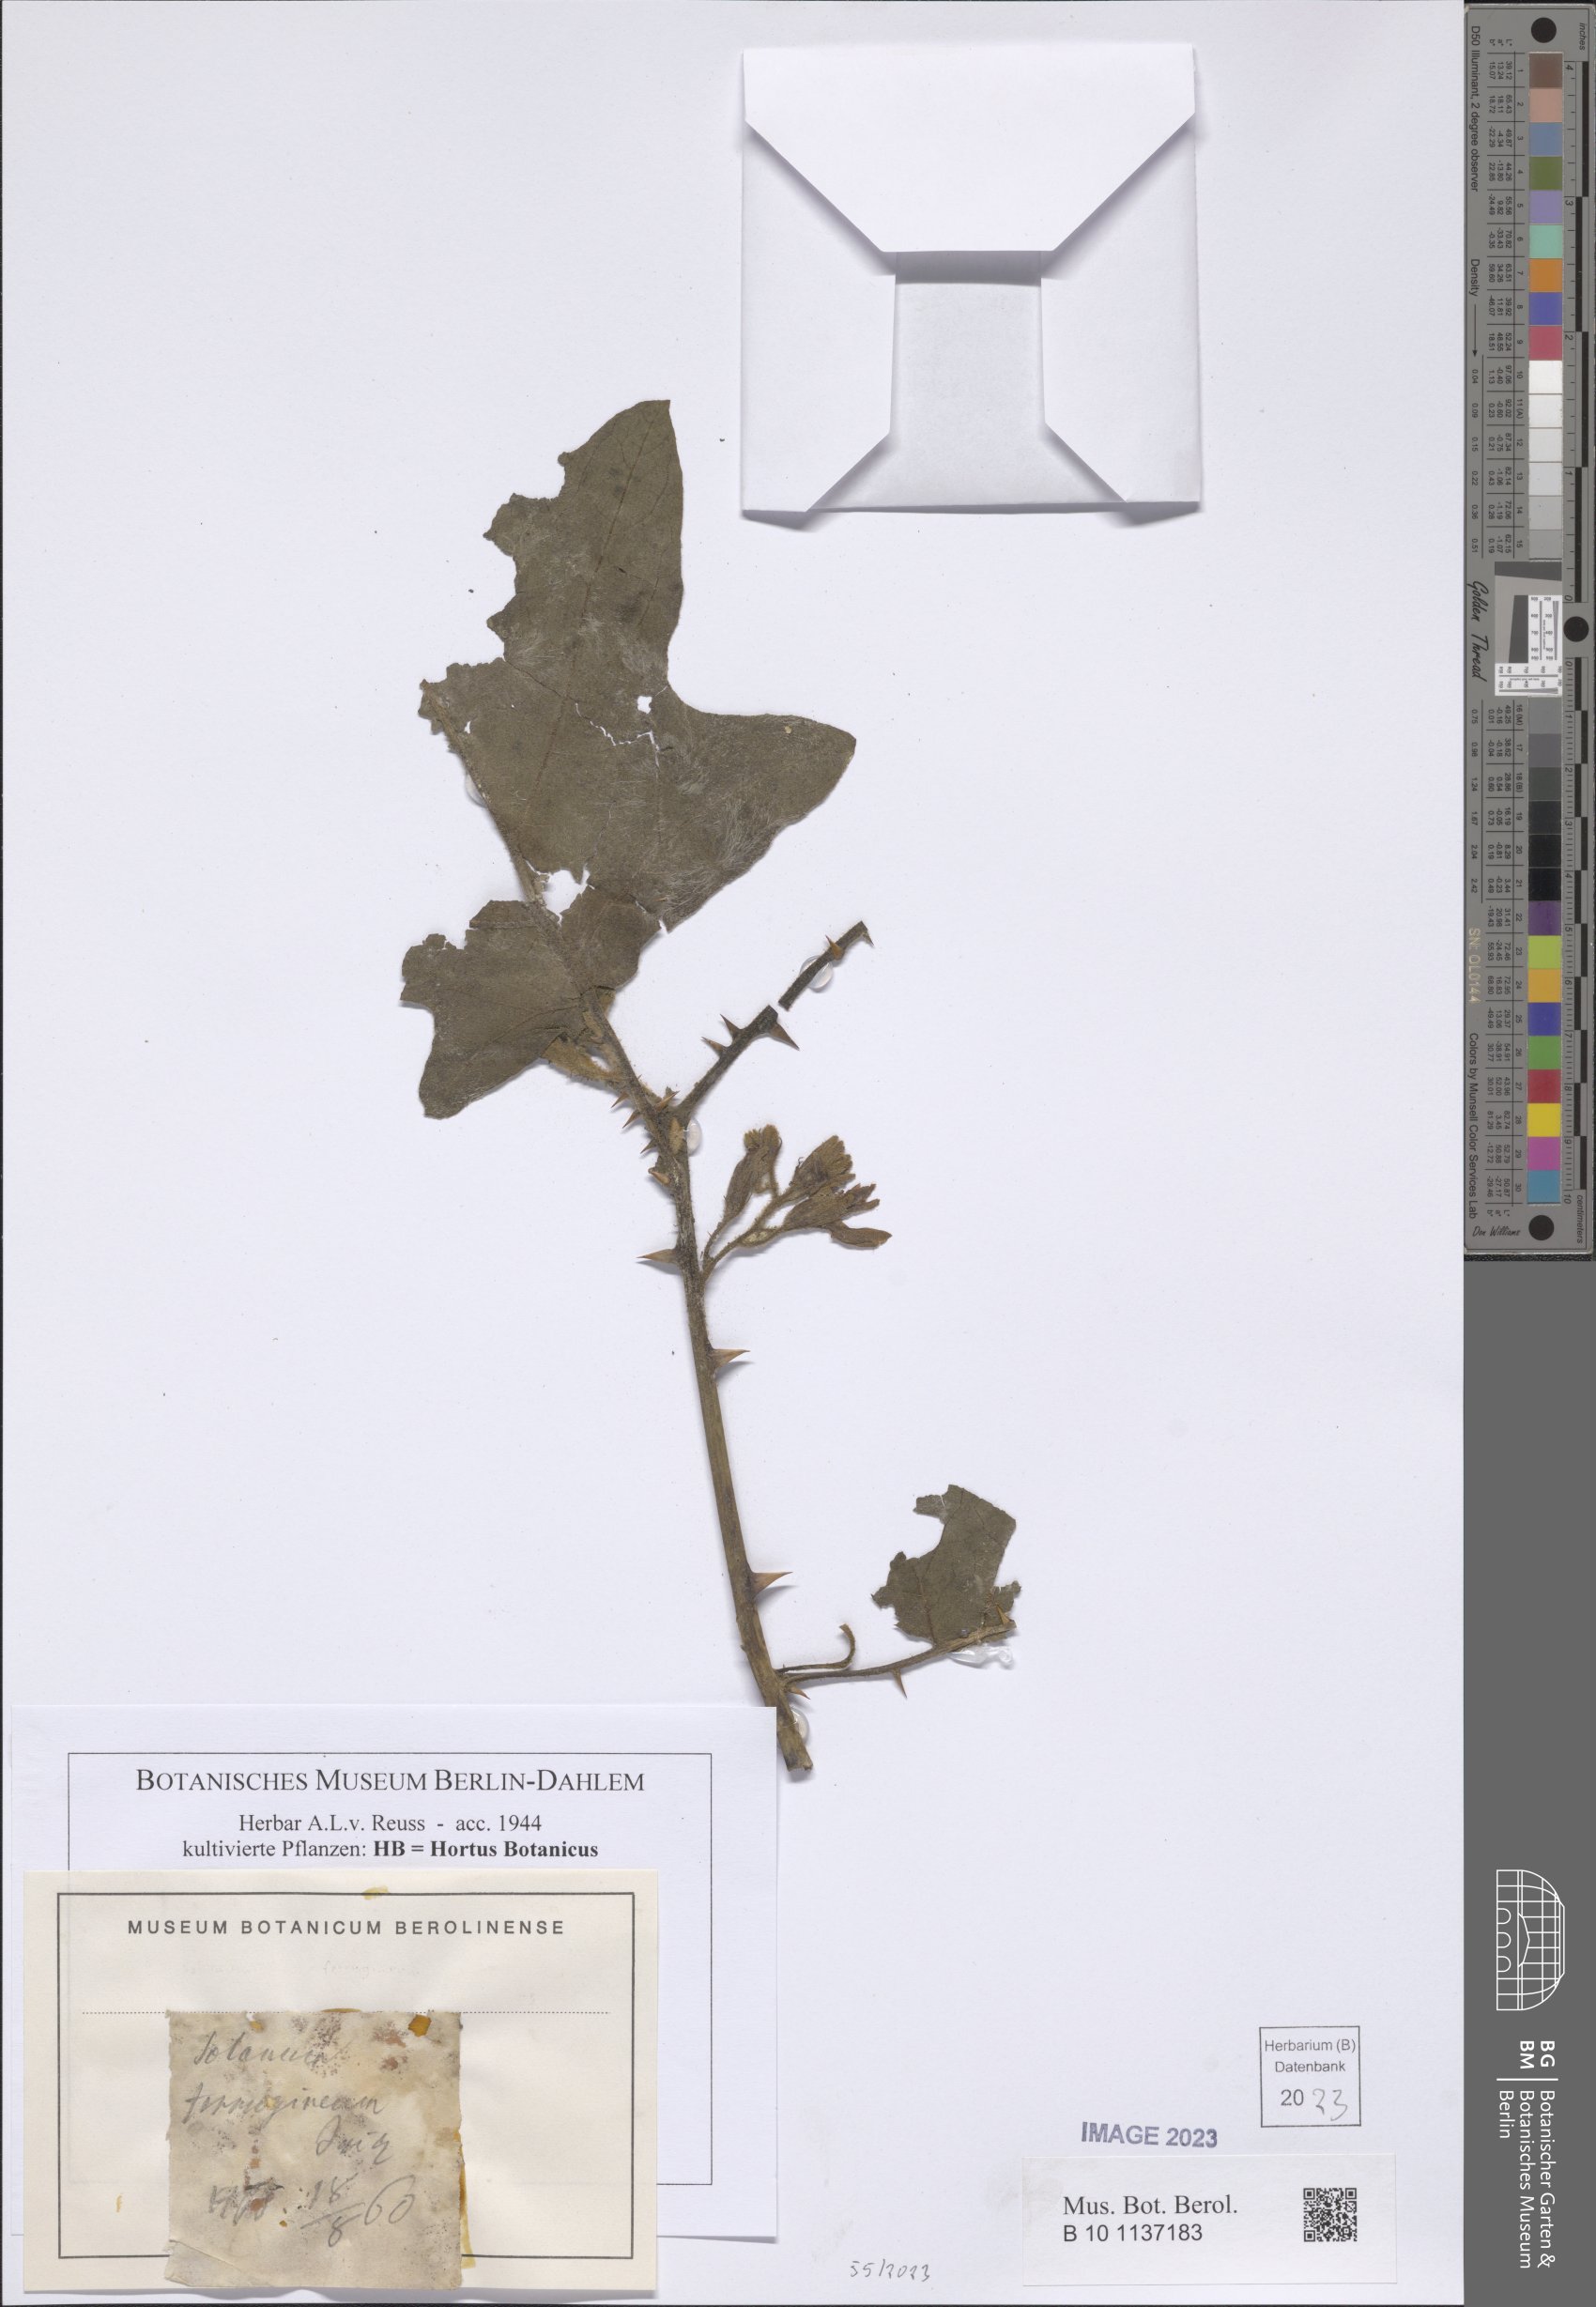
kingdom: Plantae
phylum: Tracheophyta
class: Magnoliopsida
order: Solanales
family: Solanaceae
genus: Solanum
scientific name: Solanum ferrugineum
